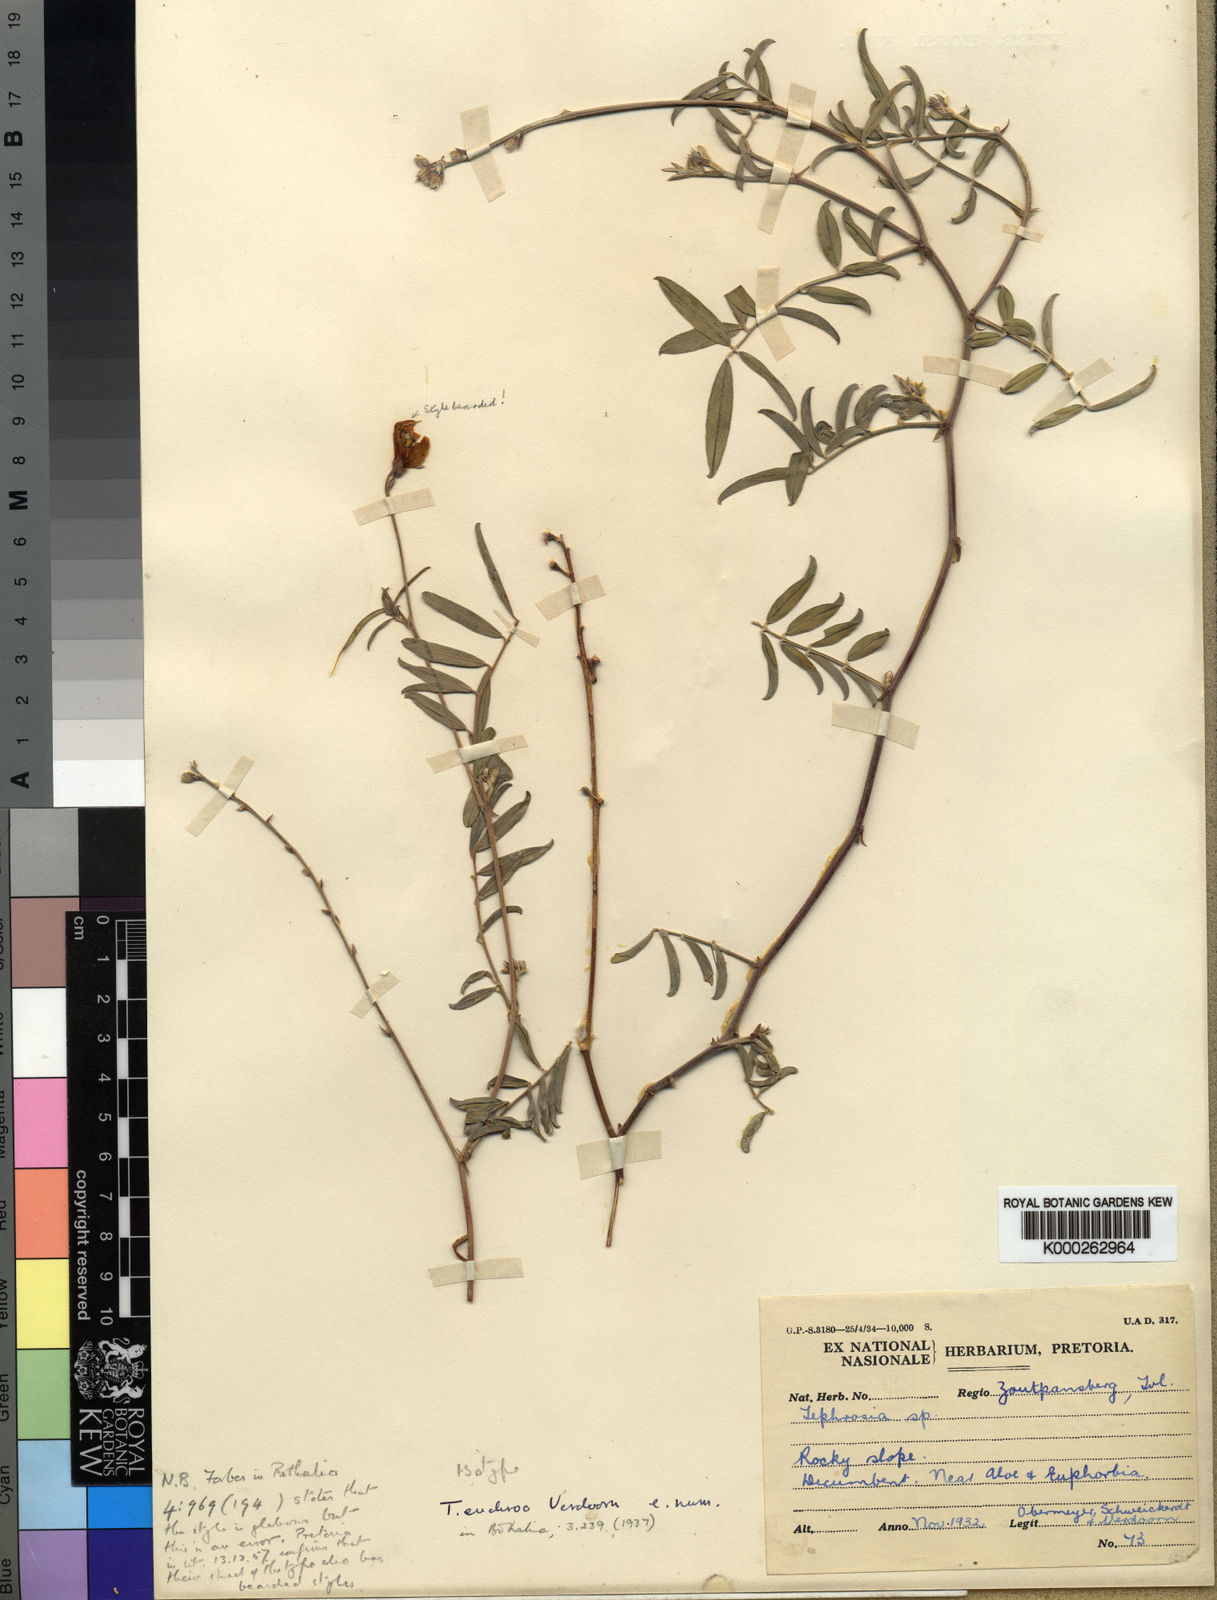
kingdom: Plantae
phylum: Tracheophyta
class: Magnoliopsida
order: Fabales
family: Fabaceae
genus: Tephrosia
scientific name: Tephrosia euchroa
